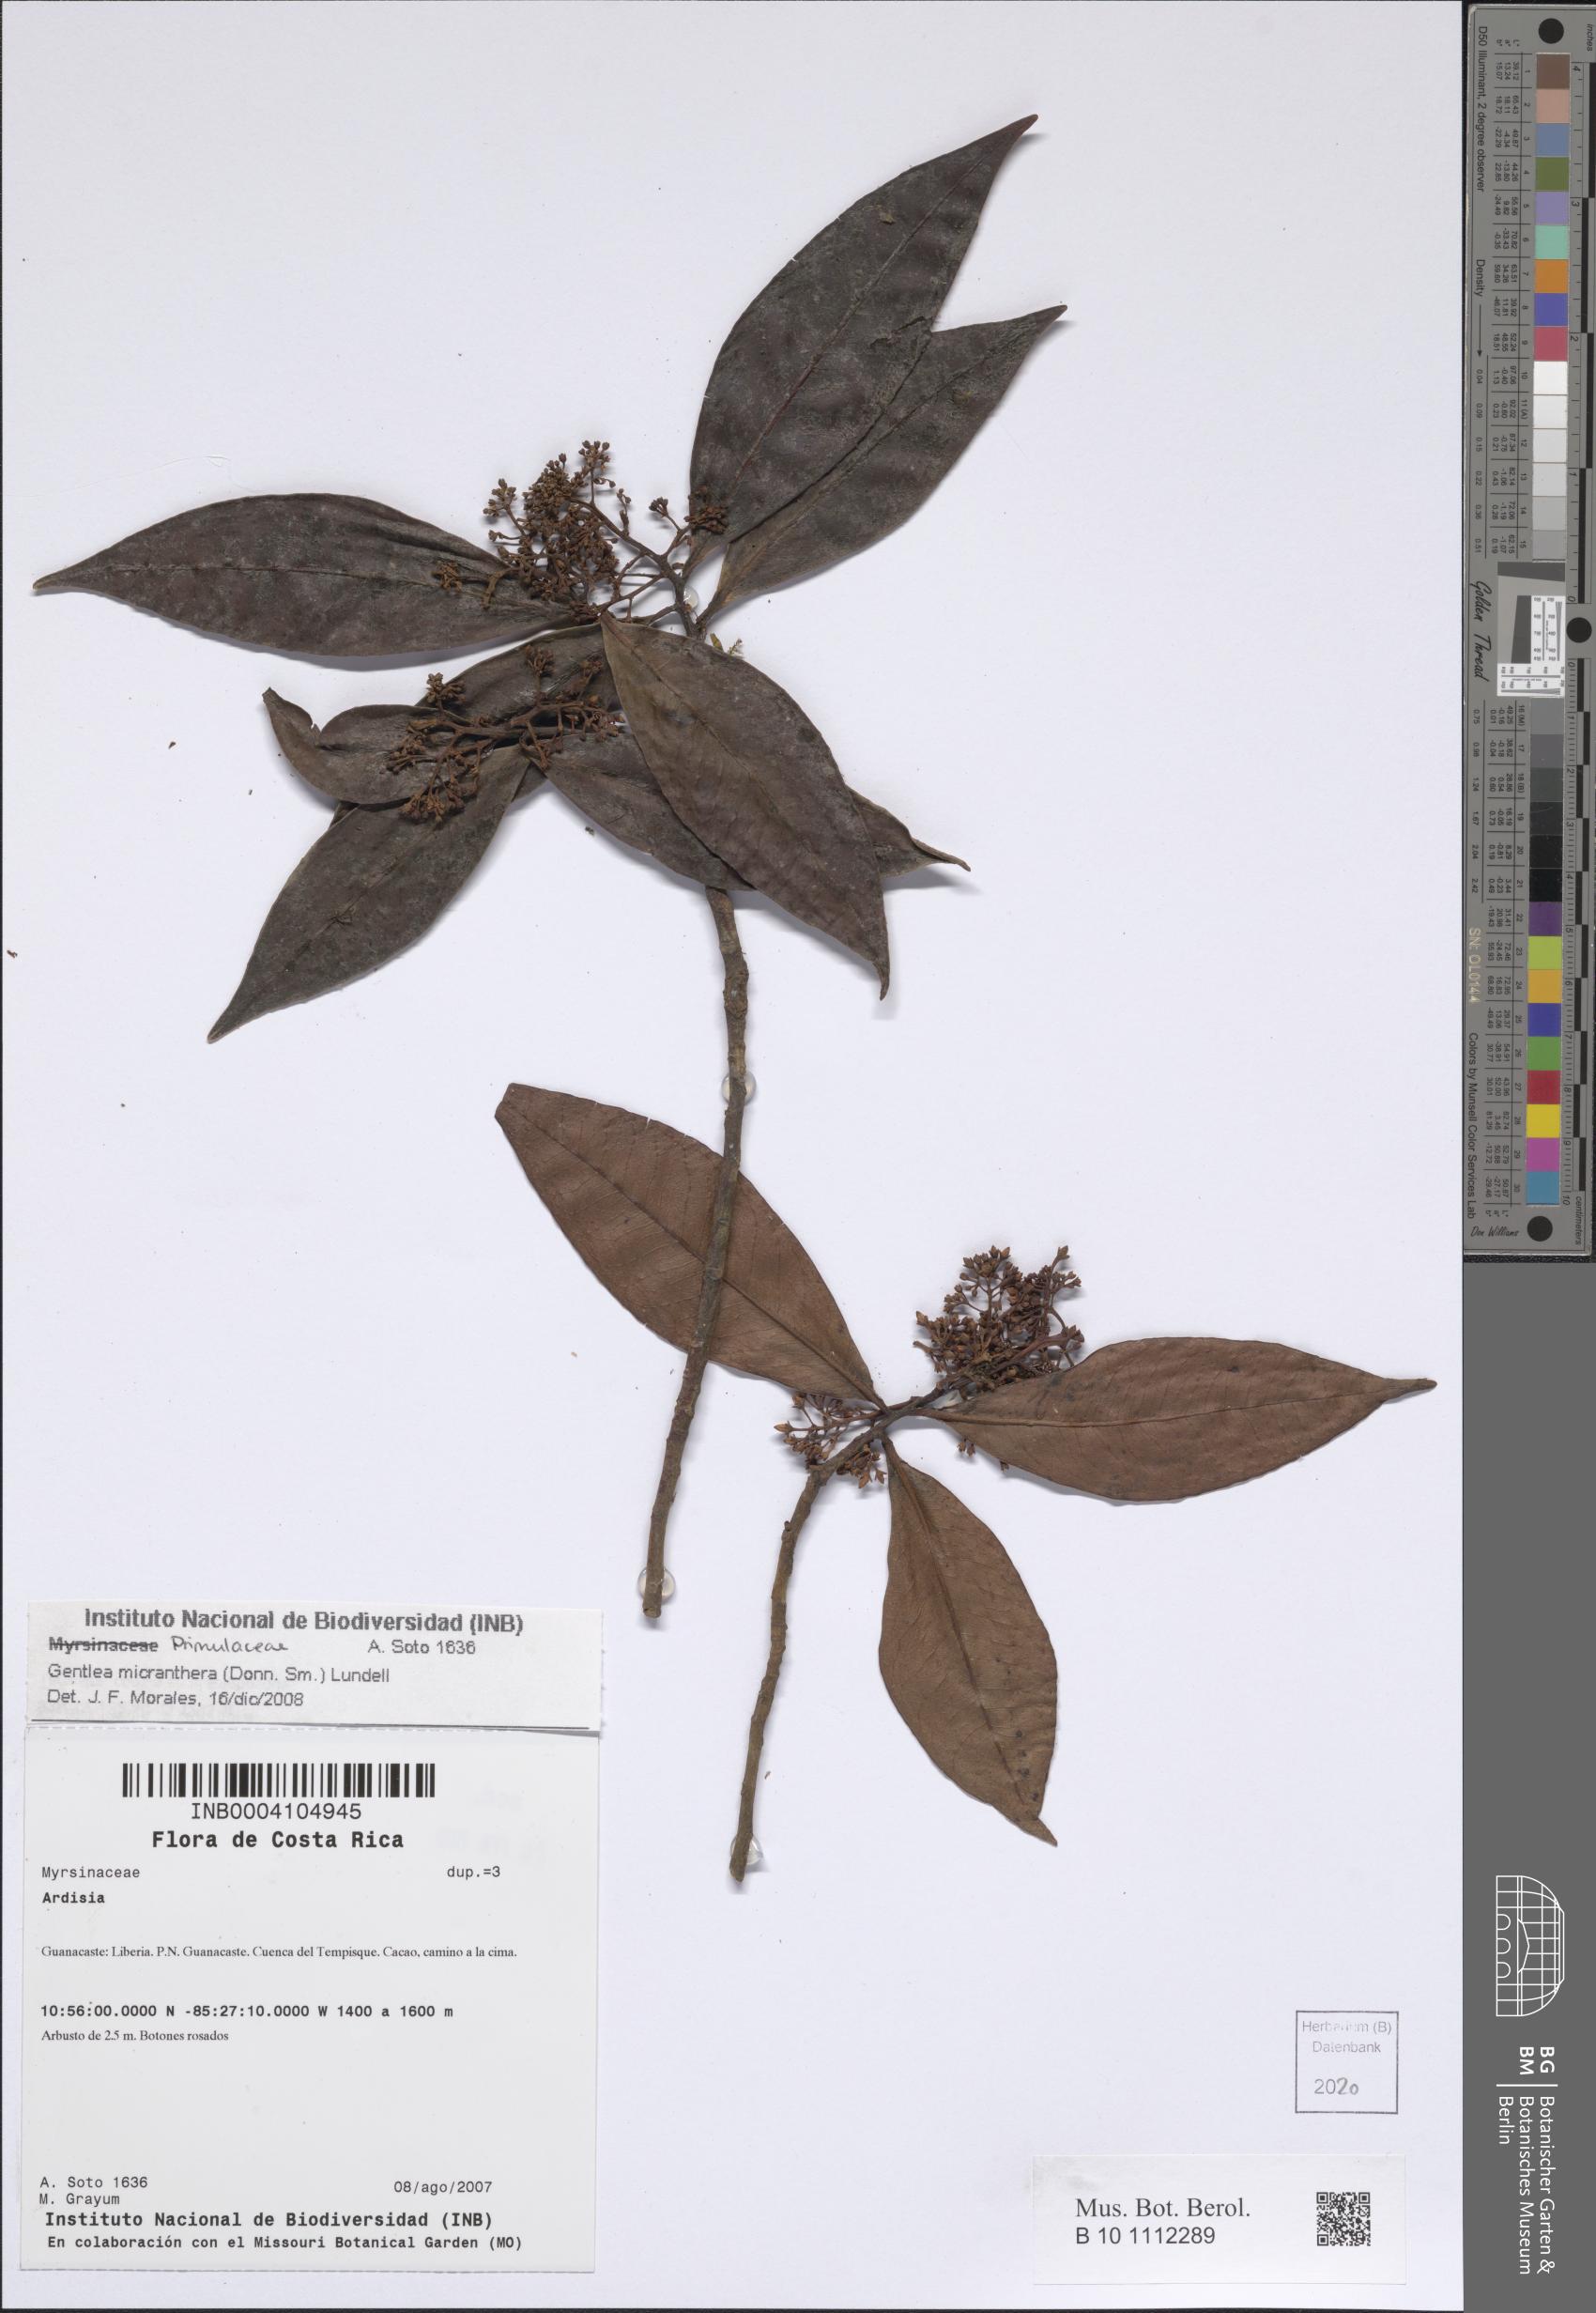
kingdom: Plantae
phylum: Tracheophyta
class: Magnoliopsida
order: Ericales
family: Primulaceae
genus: Gentlea
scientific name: Gentlea micranthera
